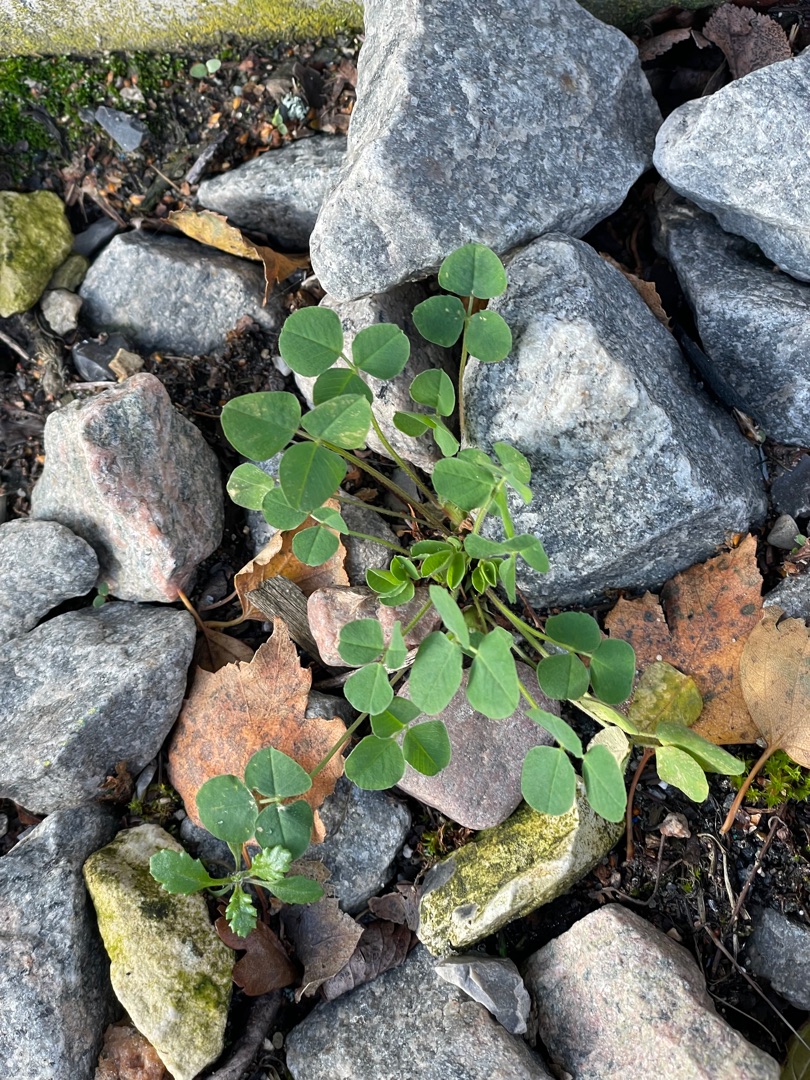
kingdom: Plantae
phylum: Tracheophyta
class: Magnoliopsida
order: Fabales
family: Fabaceae
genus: Medicago
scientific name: Medicago lupulina
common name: Humle-sneglebælg
